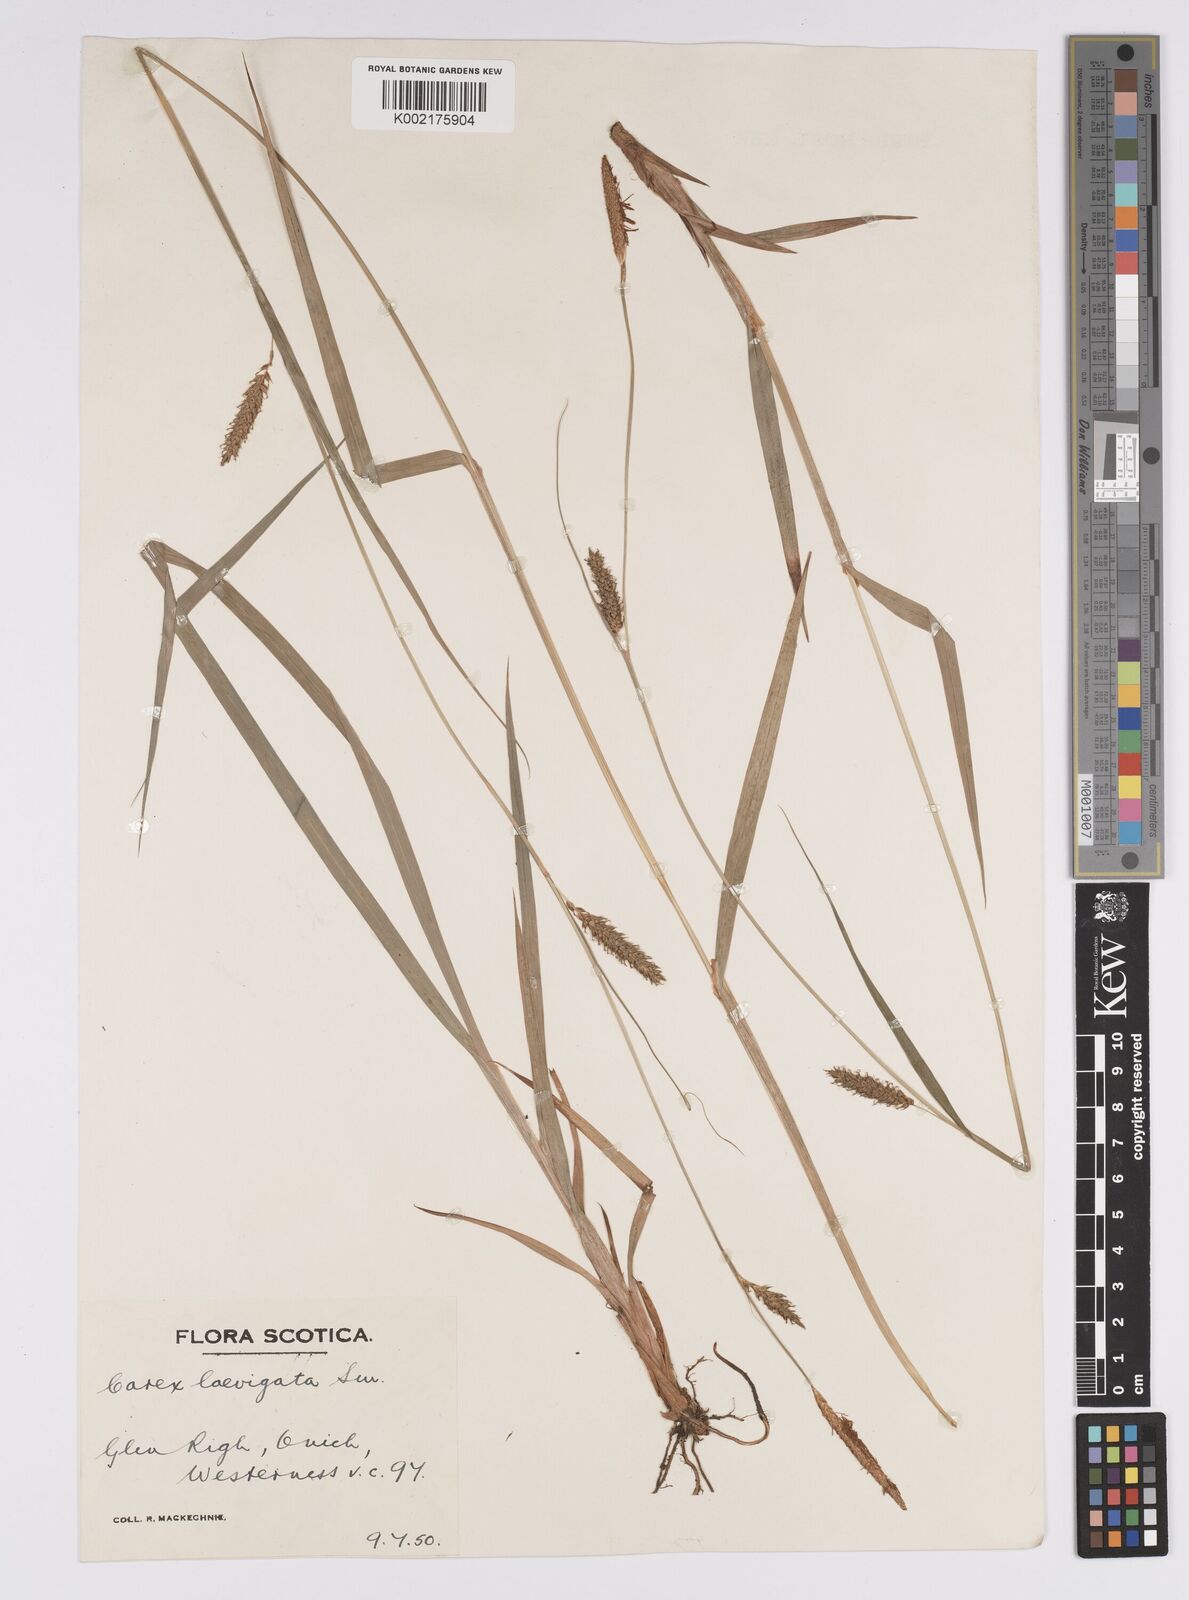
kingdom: Plantae
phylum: Tracheophyta
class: Liliopsida
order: Poales
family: Cyperaceae
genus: Carex
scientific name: Carex laevigata
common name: Smooth-stalked sedge
